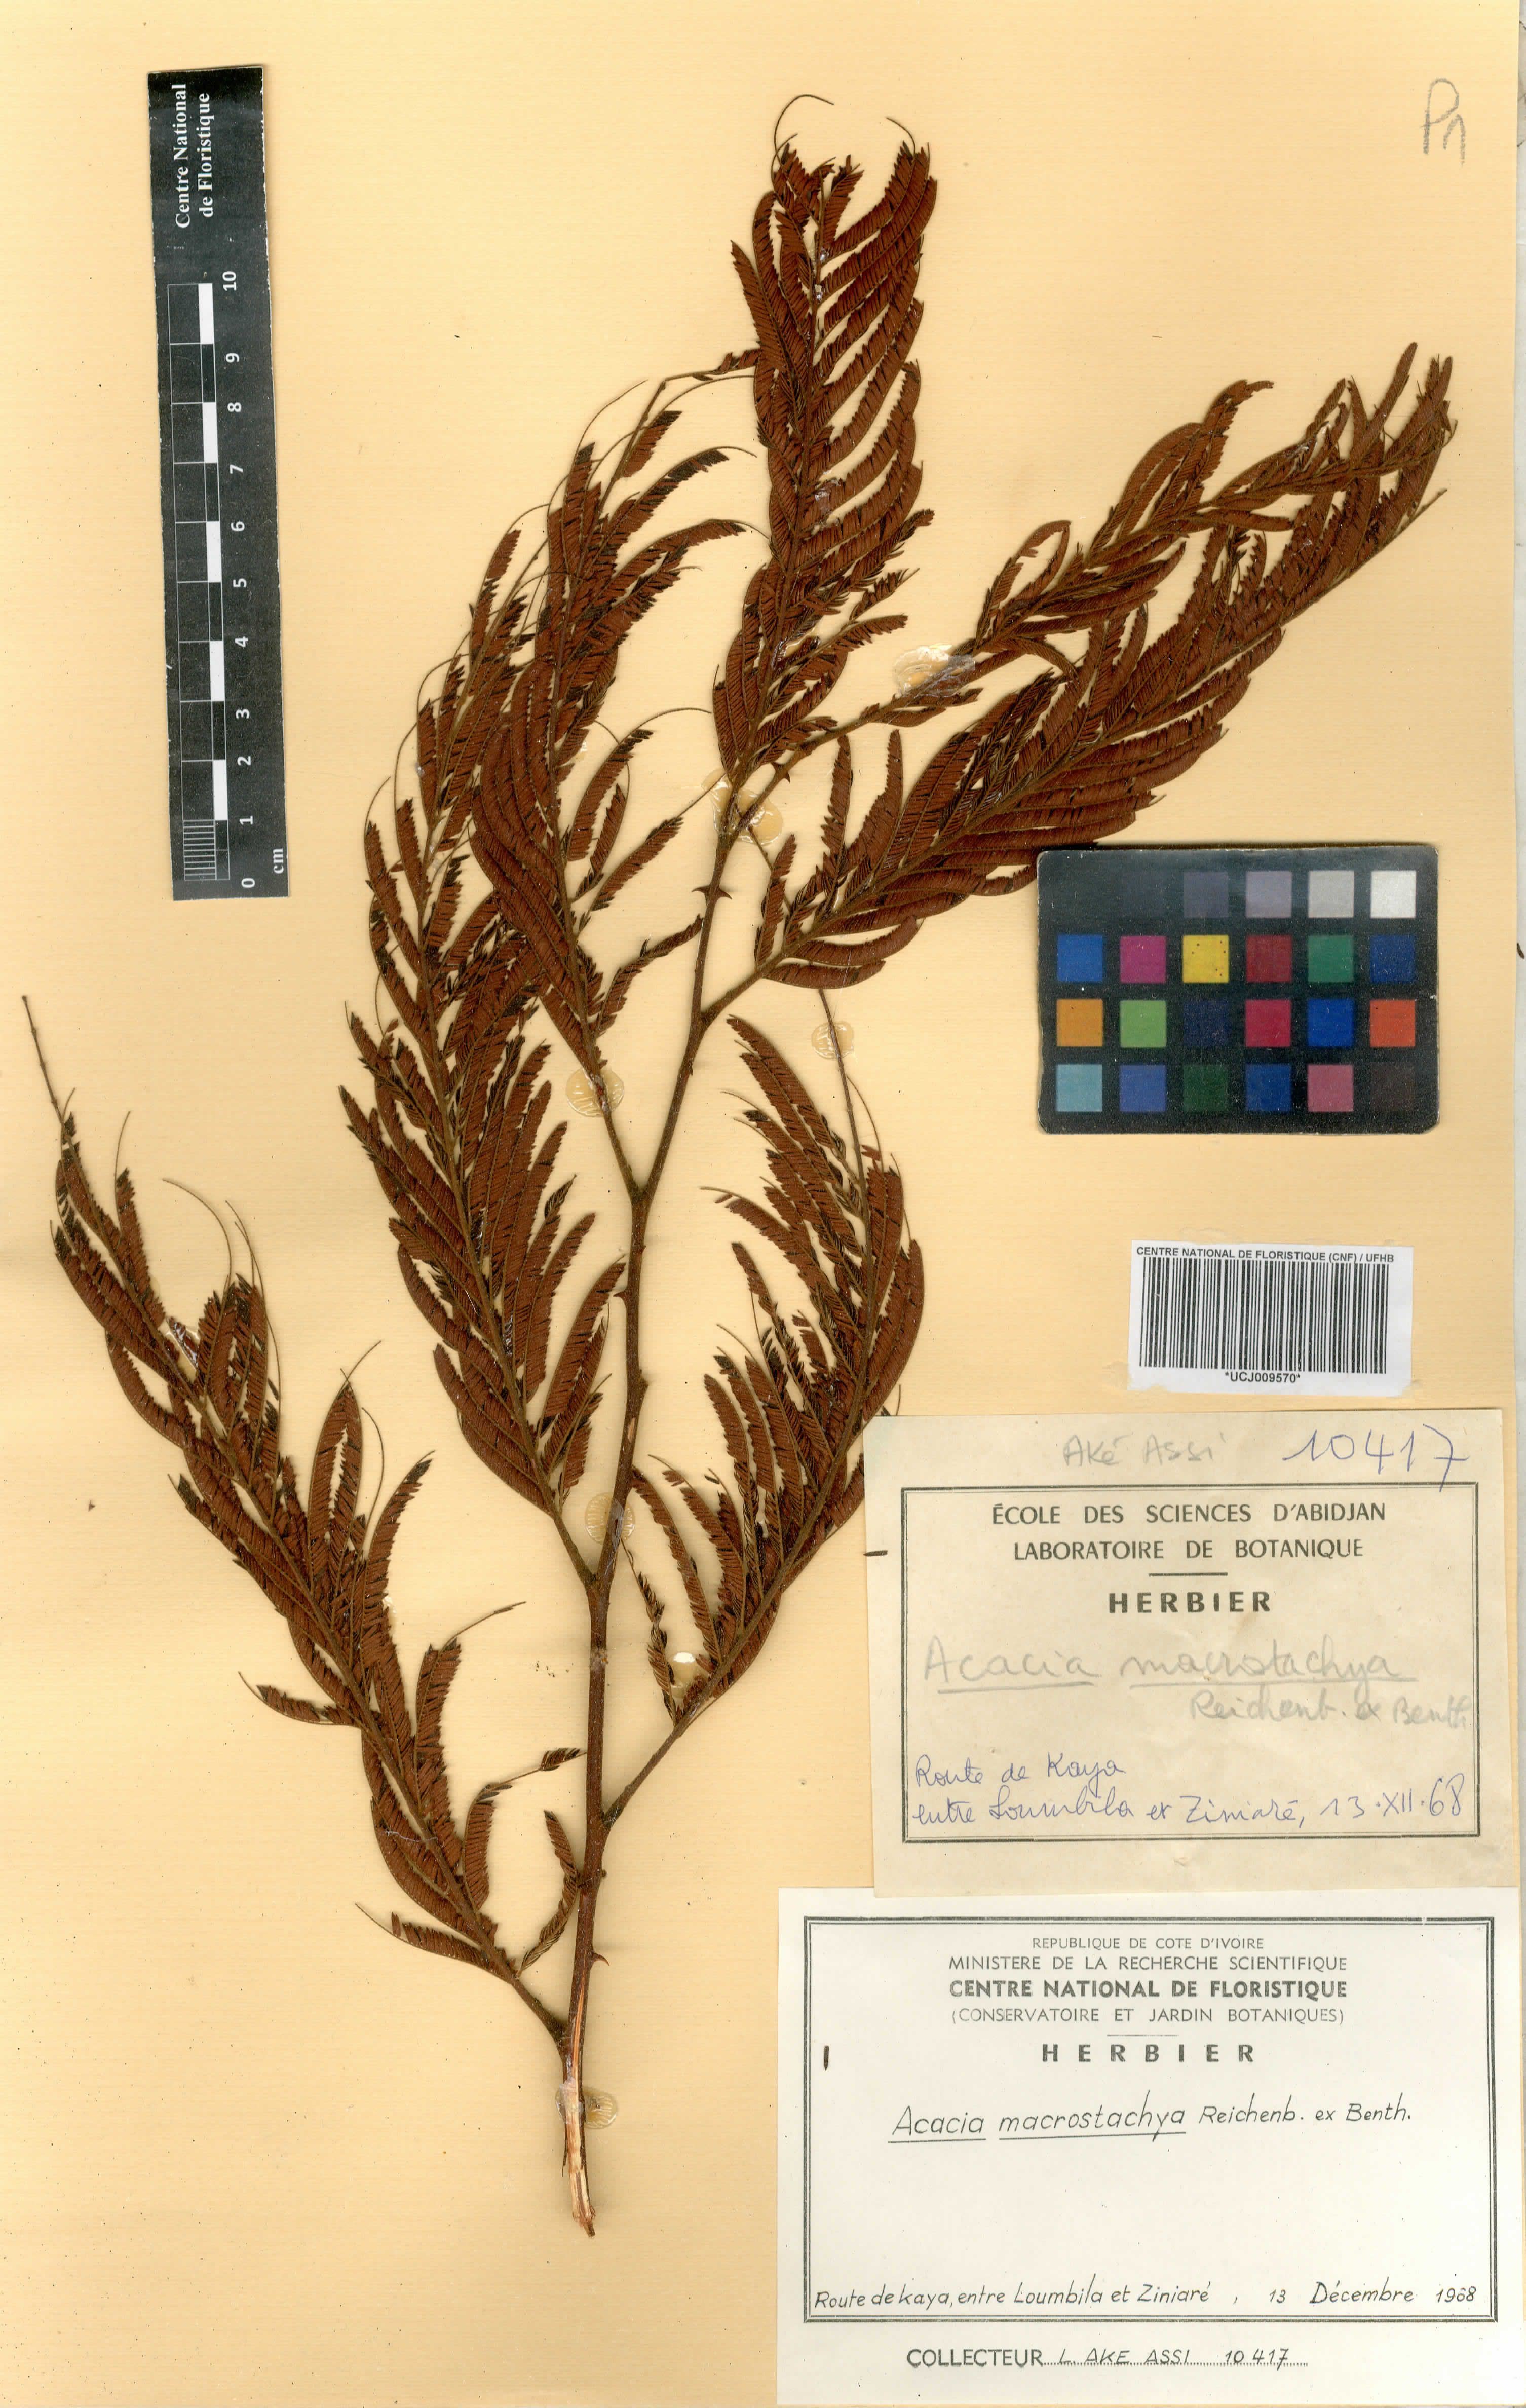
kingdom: Plantae
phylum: Tracheophyta
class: Magnoliopsida
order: Fabales
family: Fabaceae
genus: Senegalia
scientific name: Senegalia macrostachya
